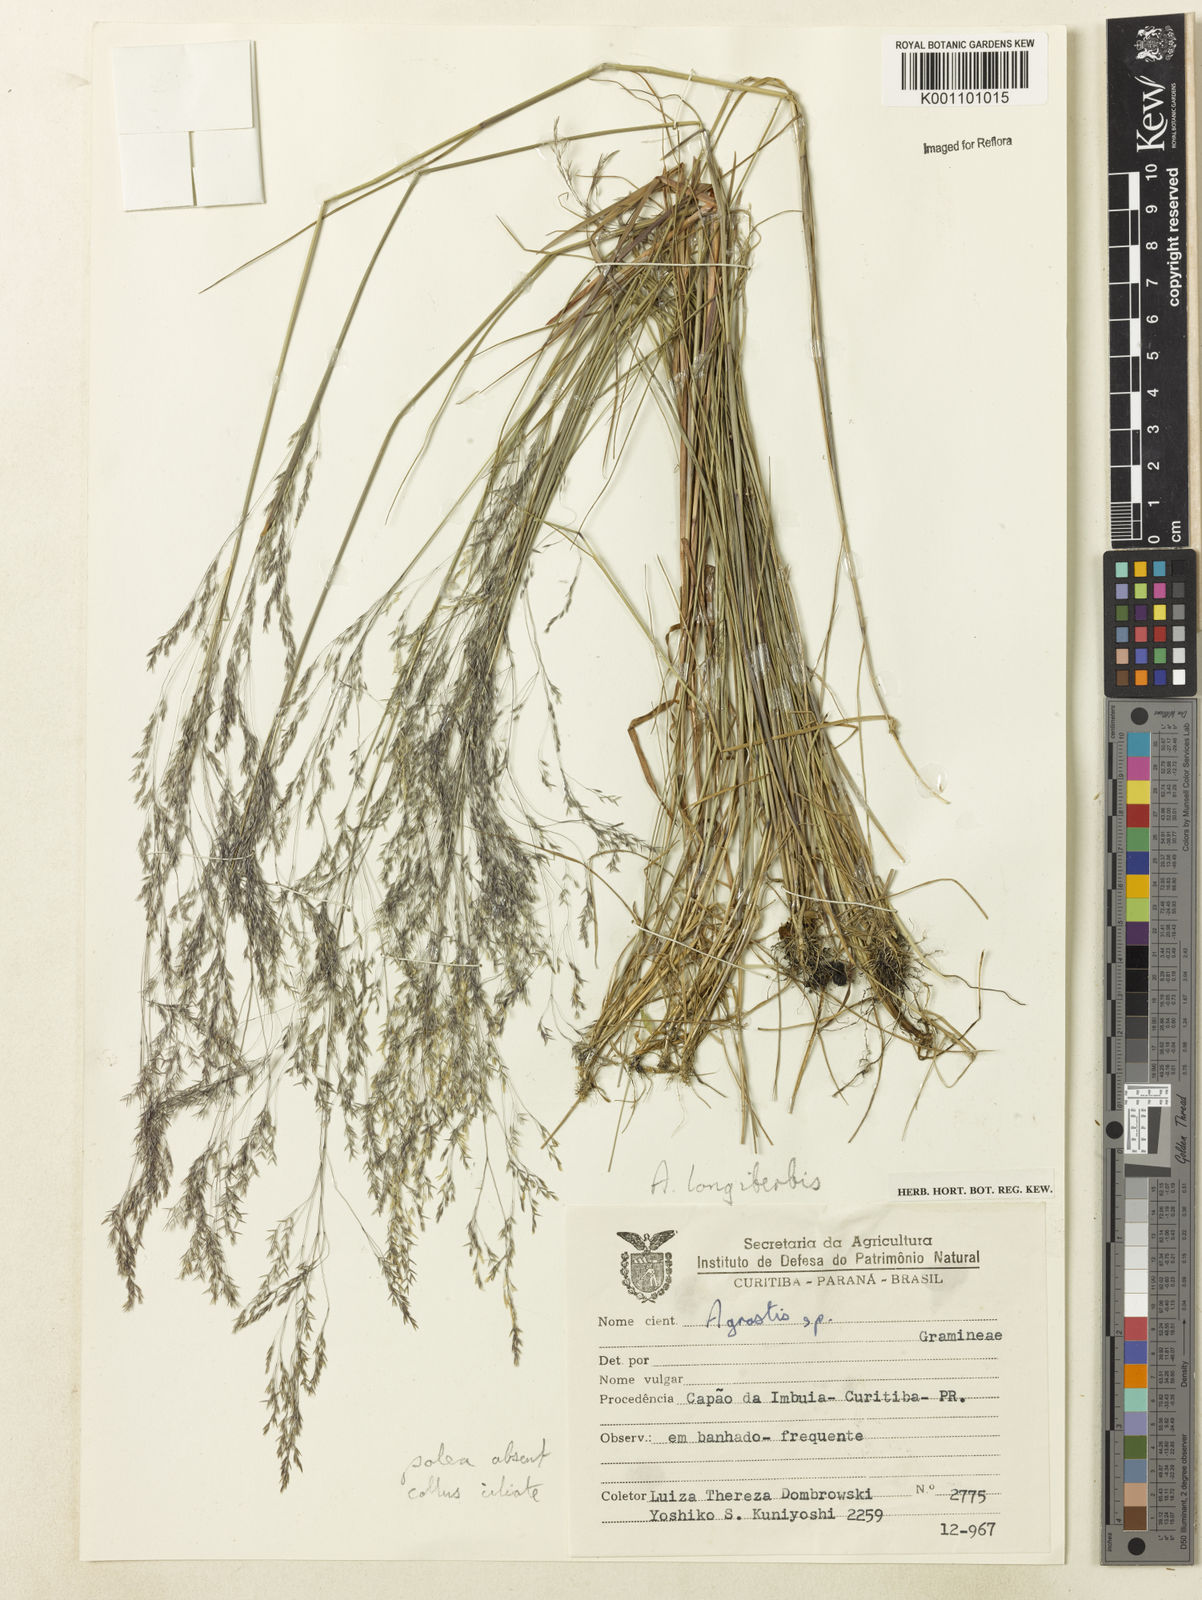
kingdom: Plantae
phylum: Tracheophyta
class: Liliopsida
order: Poales
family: Poaceae
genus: Agrostis
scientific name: Agrostis longiberbis
